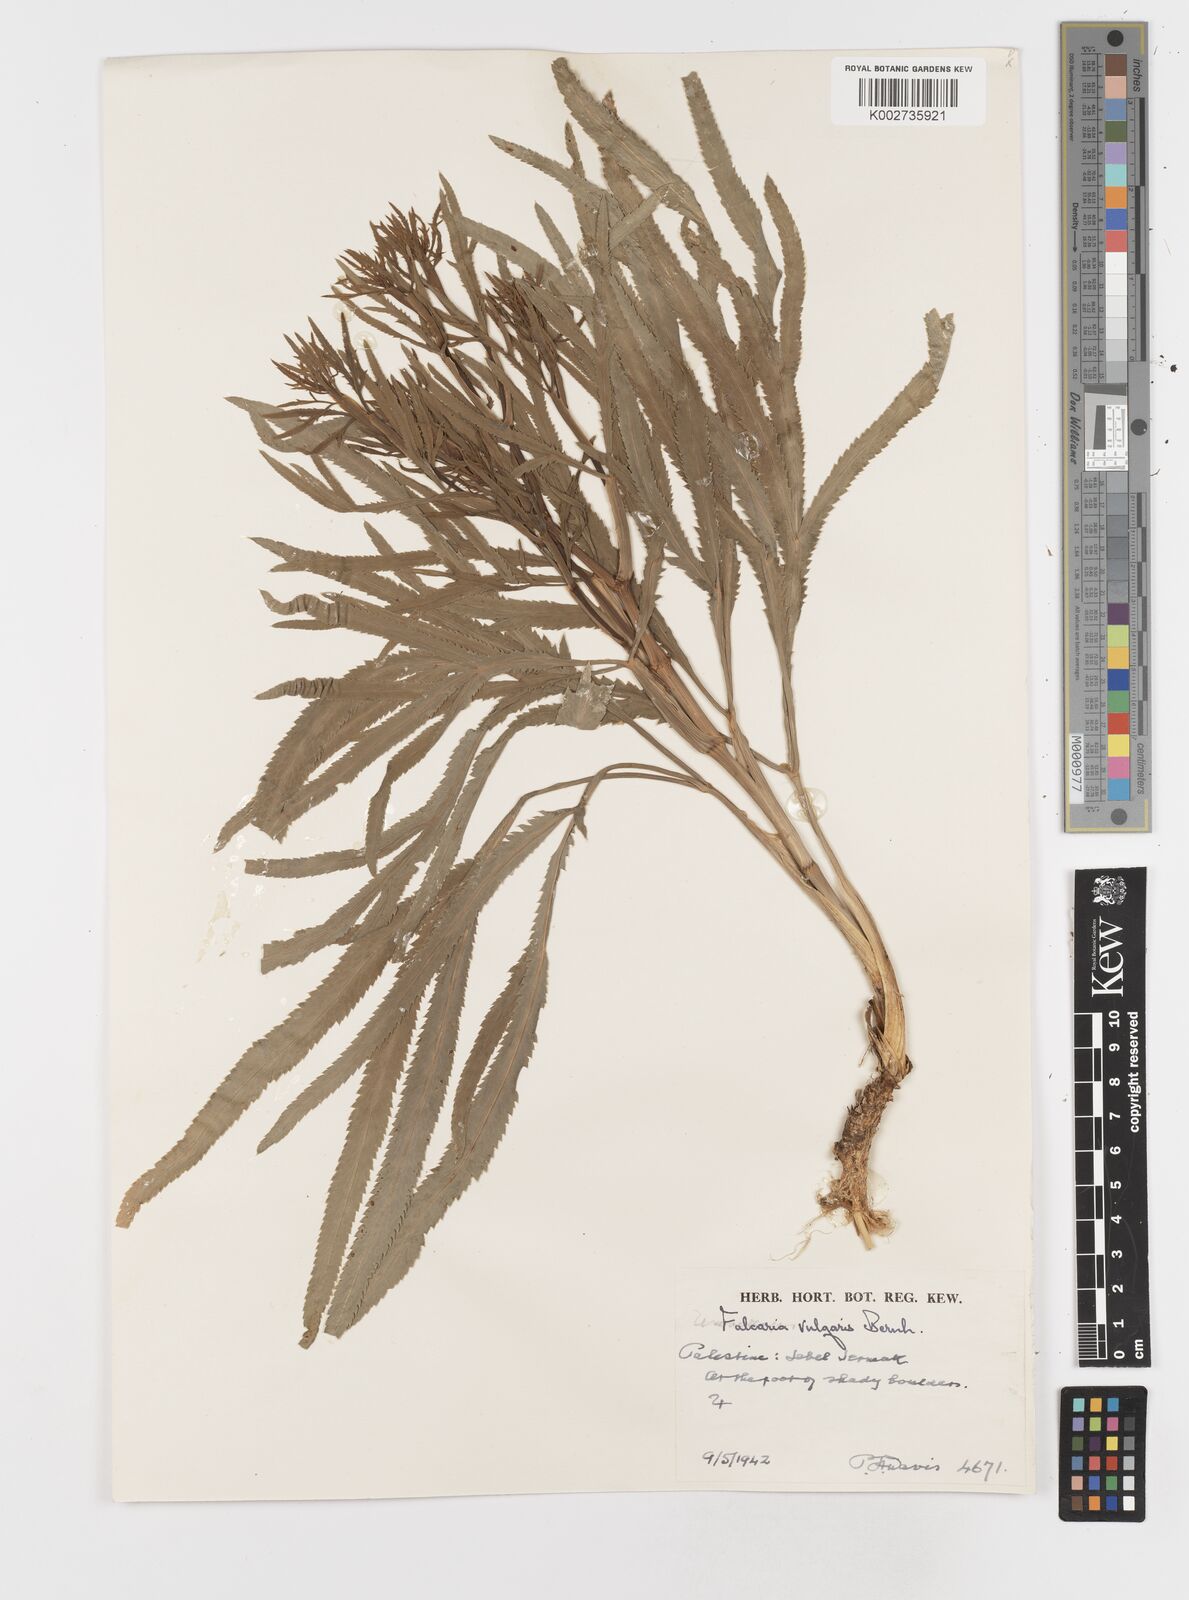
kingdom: Plantae
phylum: Tracheophyta
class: Magnoliopsida
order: Apiales
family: Apiaceae
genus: Falcaria
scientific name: Falcaria vulgaris
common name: Longleaf
